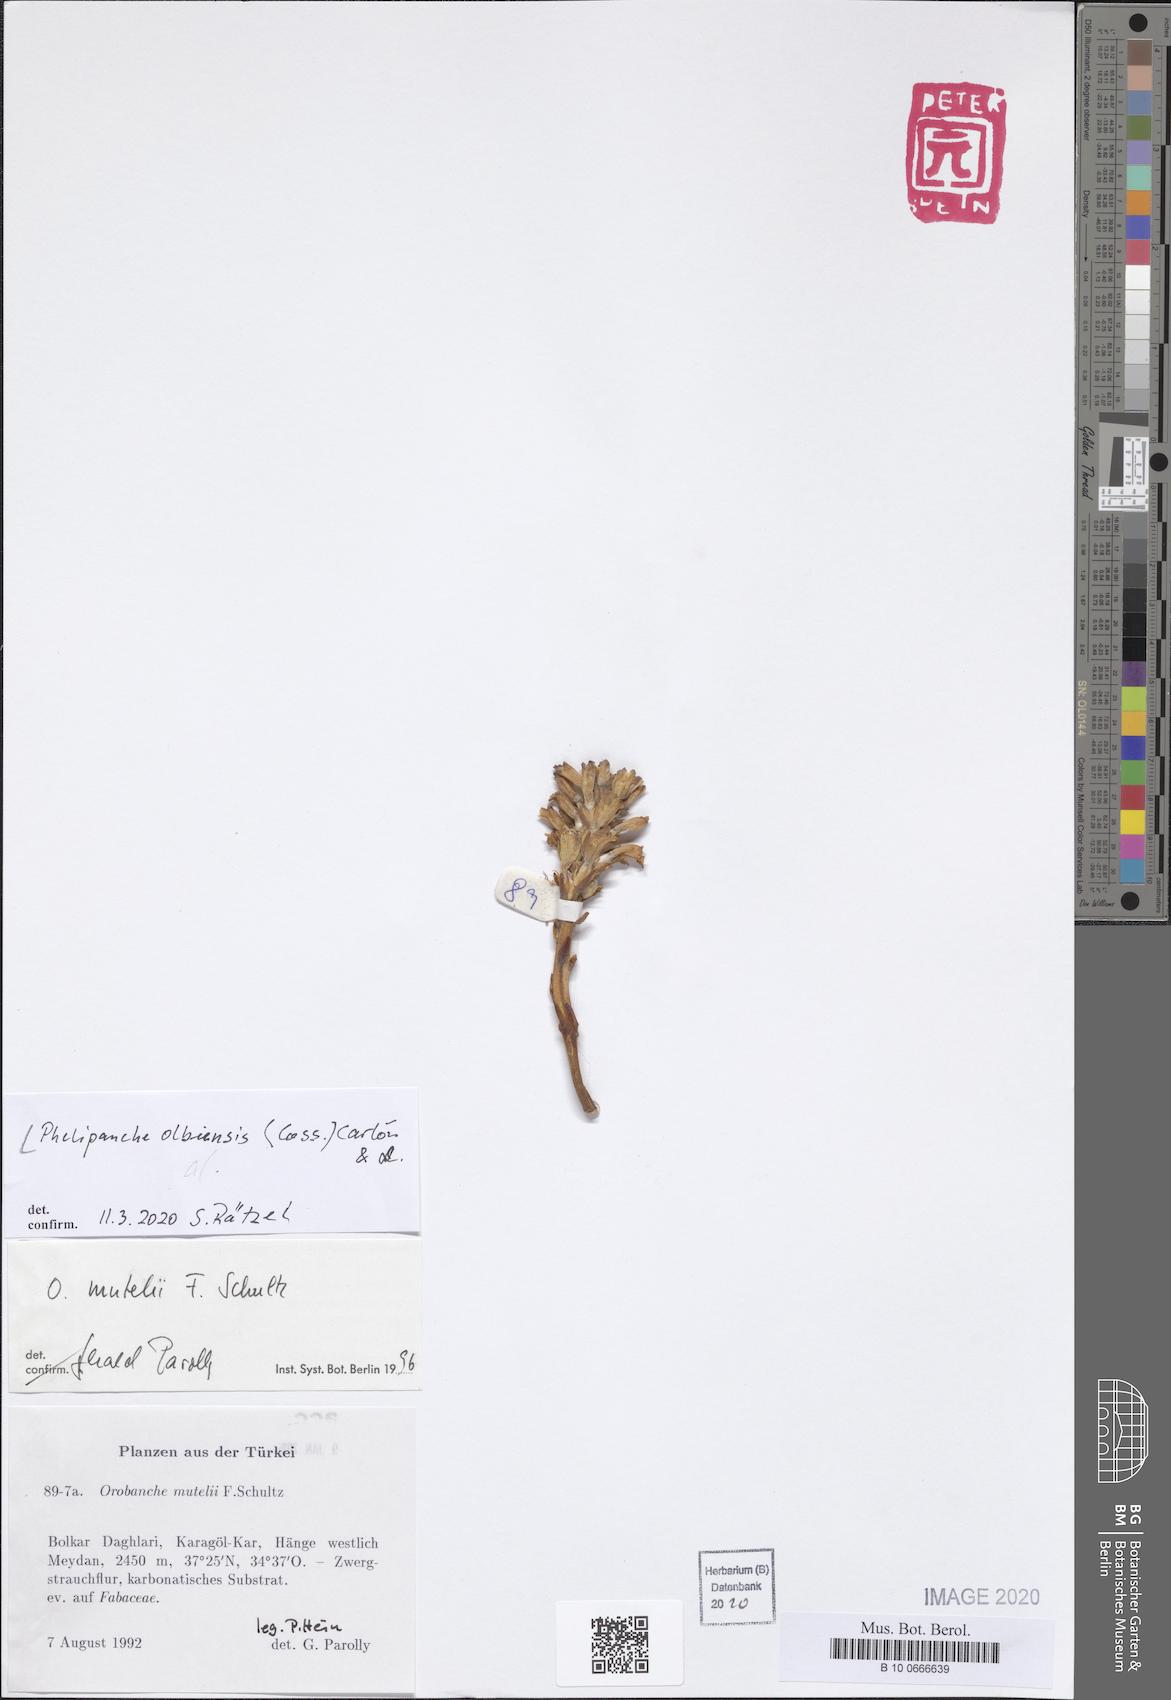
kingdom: Plantae
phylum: Tracheophyta
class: Magnoliopsida
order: Lamiales
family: Orobanchaceae
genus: Phelipanche
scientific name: Phelipanche olbiensis
